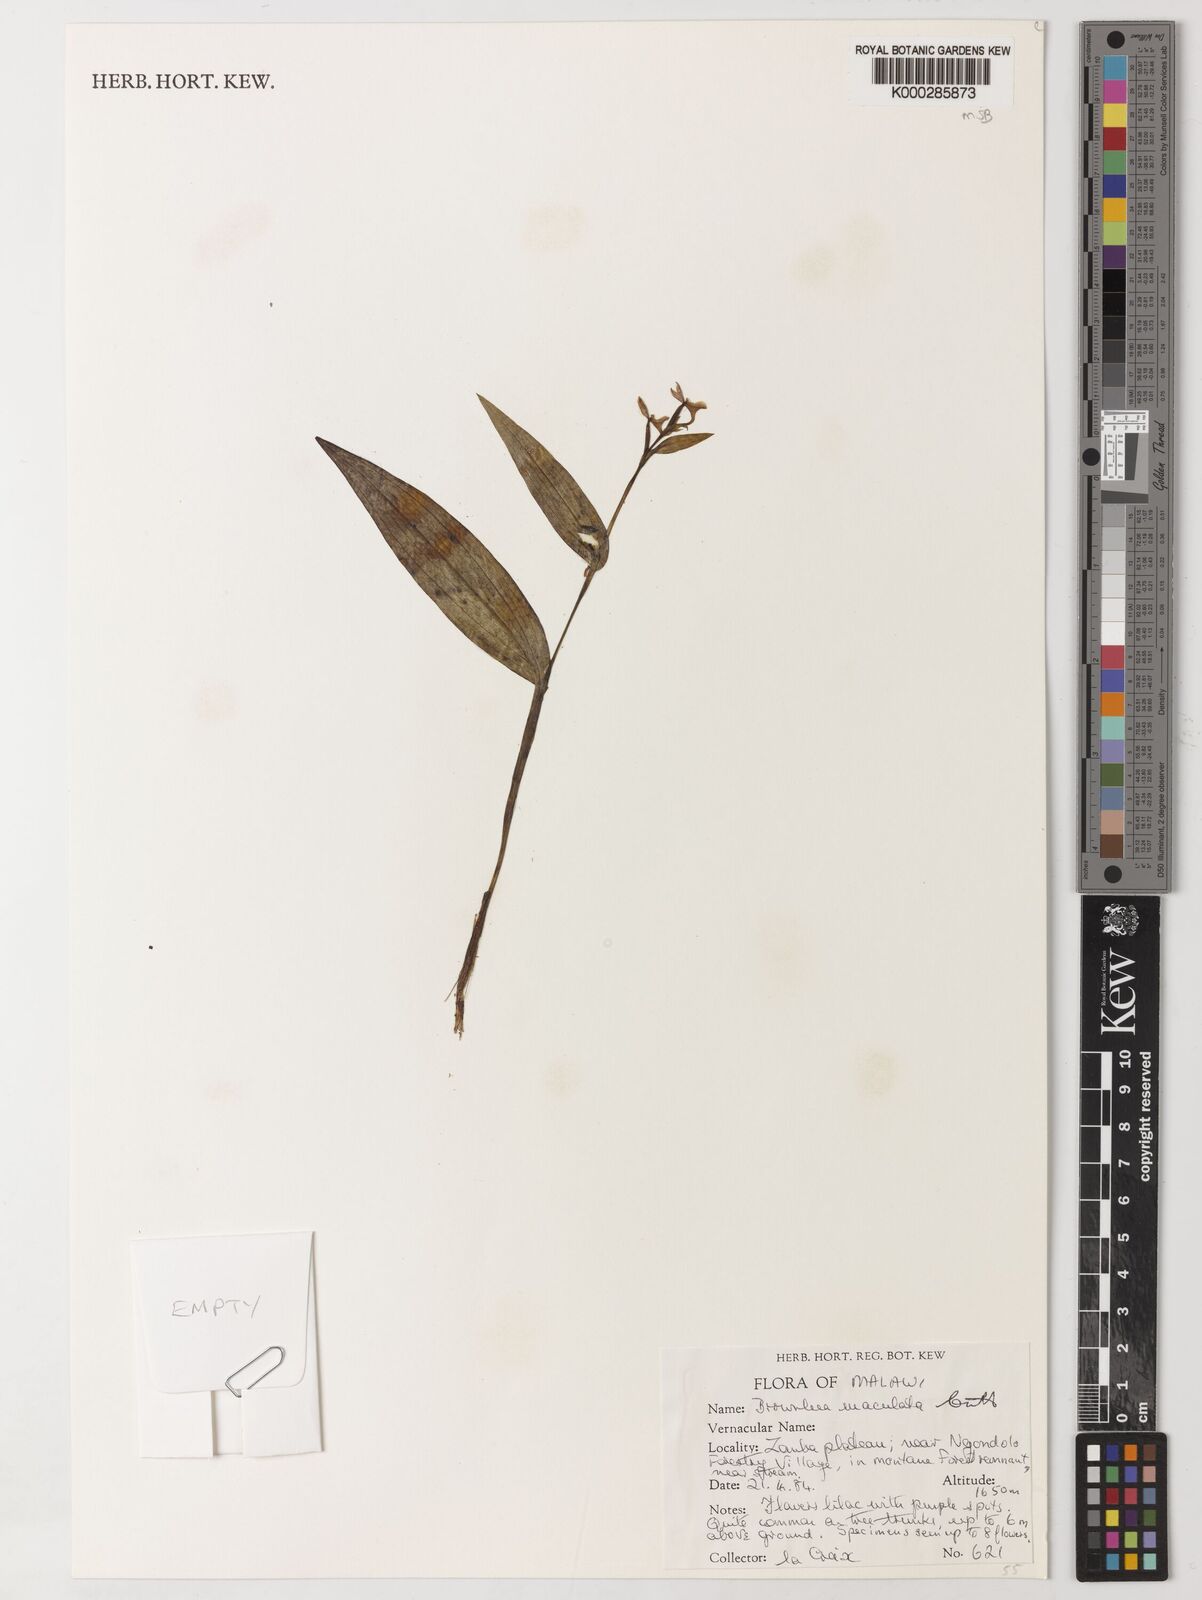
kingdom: Plantae
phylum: Tracheophyta
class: Liliopsida
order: Asparagales
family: Orchidaceae
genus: Brownleea
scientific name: Brownleea maculata
